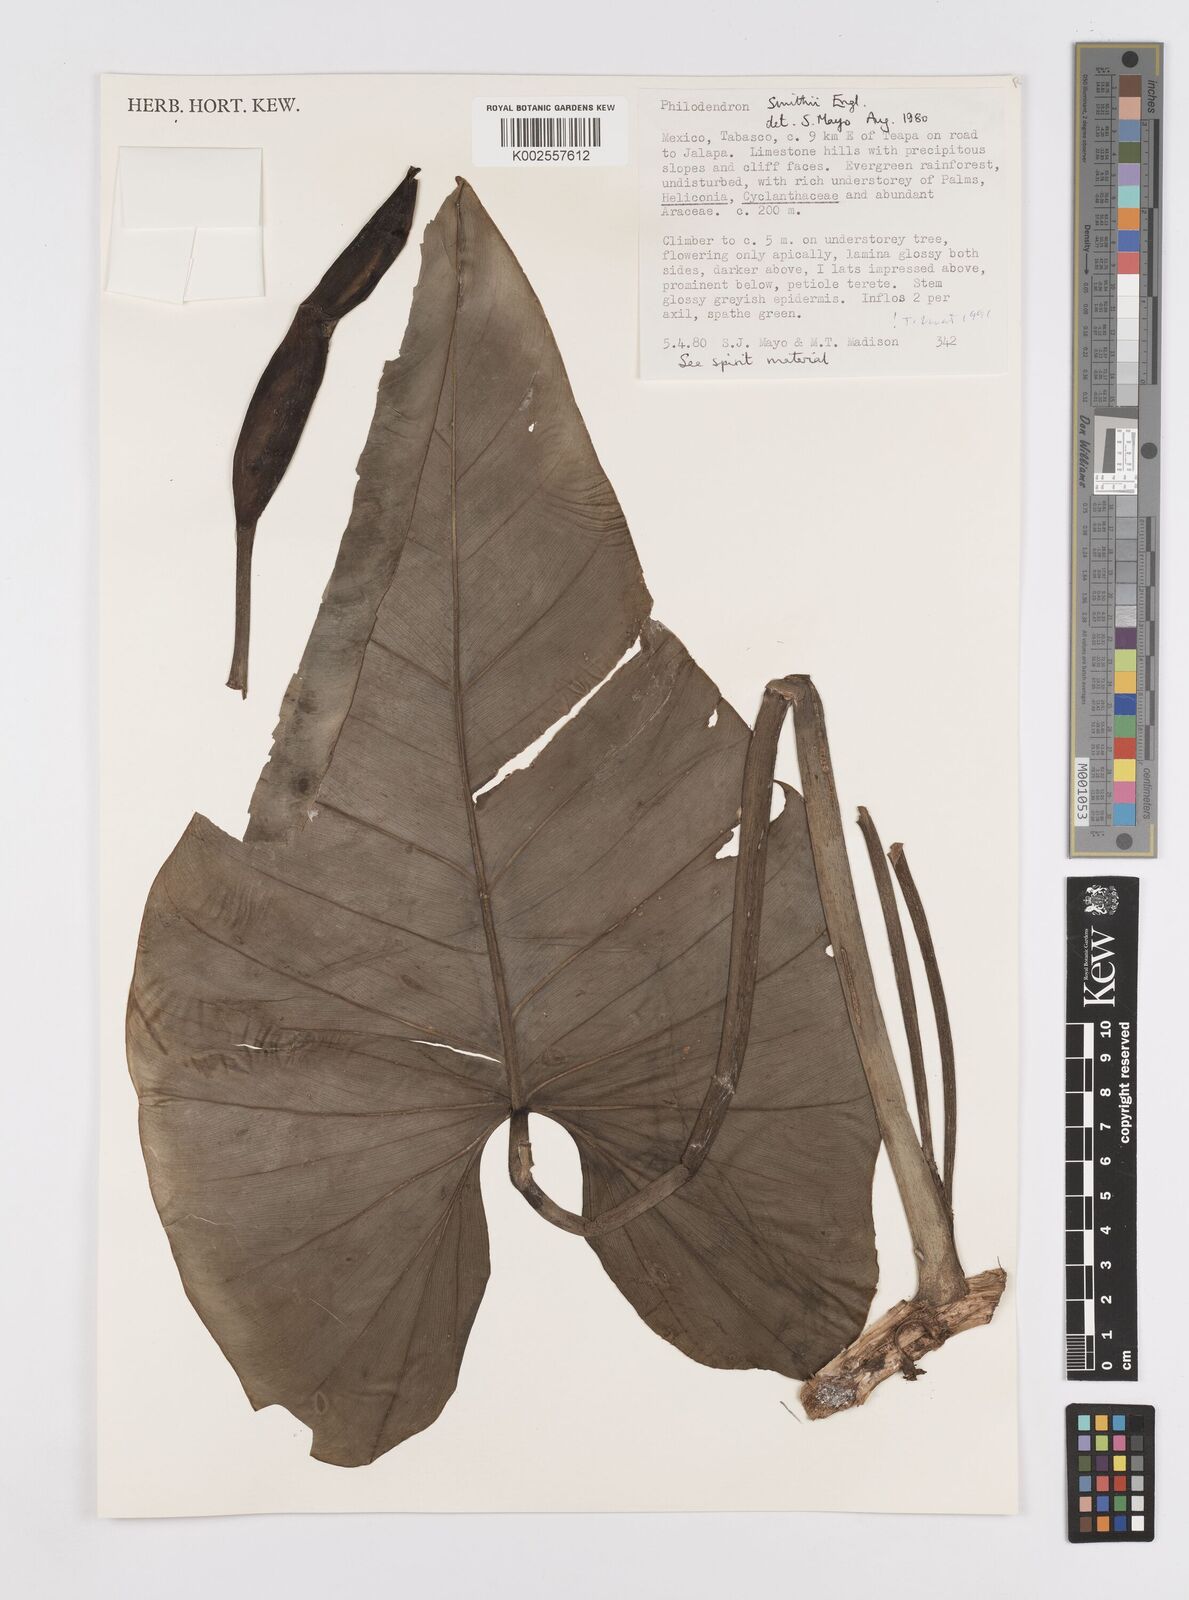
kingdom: Plantae
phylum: Tracheophyta
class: Liliopsida
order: Alismatales
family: Araceae
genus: Philodendron
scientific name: Philodendron smithii
